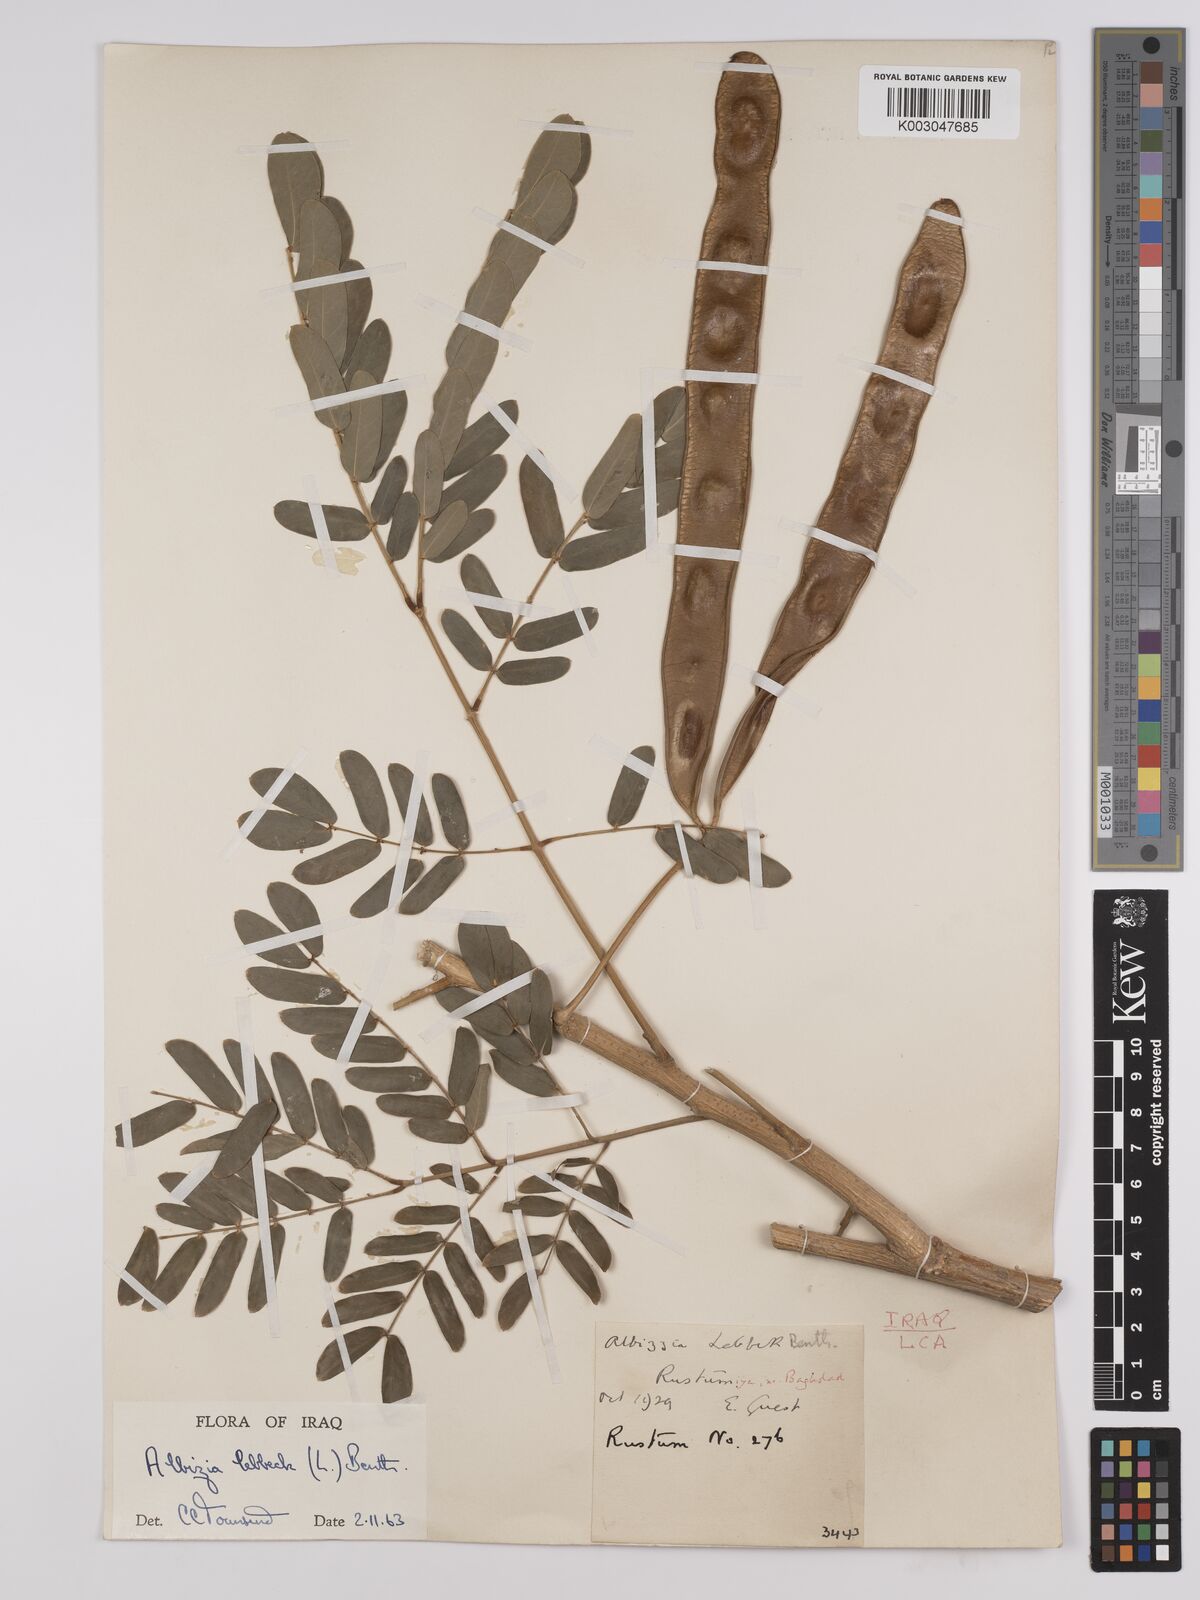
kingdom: Plantae
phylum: Tracheophyta
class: Magnoliopsida
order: Fabales
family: Fabaceae
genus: Albizia
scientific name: Albizia lebbeck
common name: Woman's tongue
